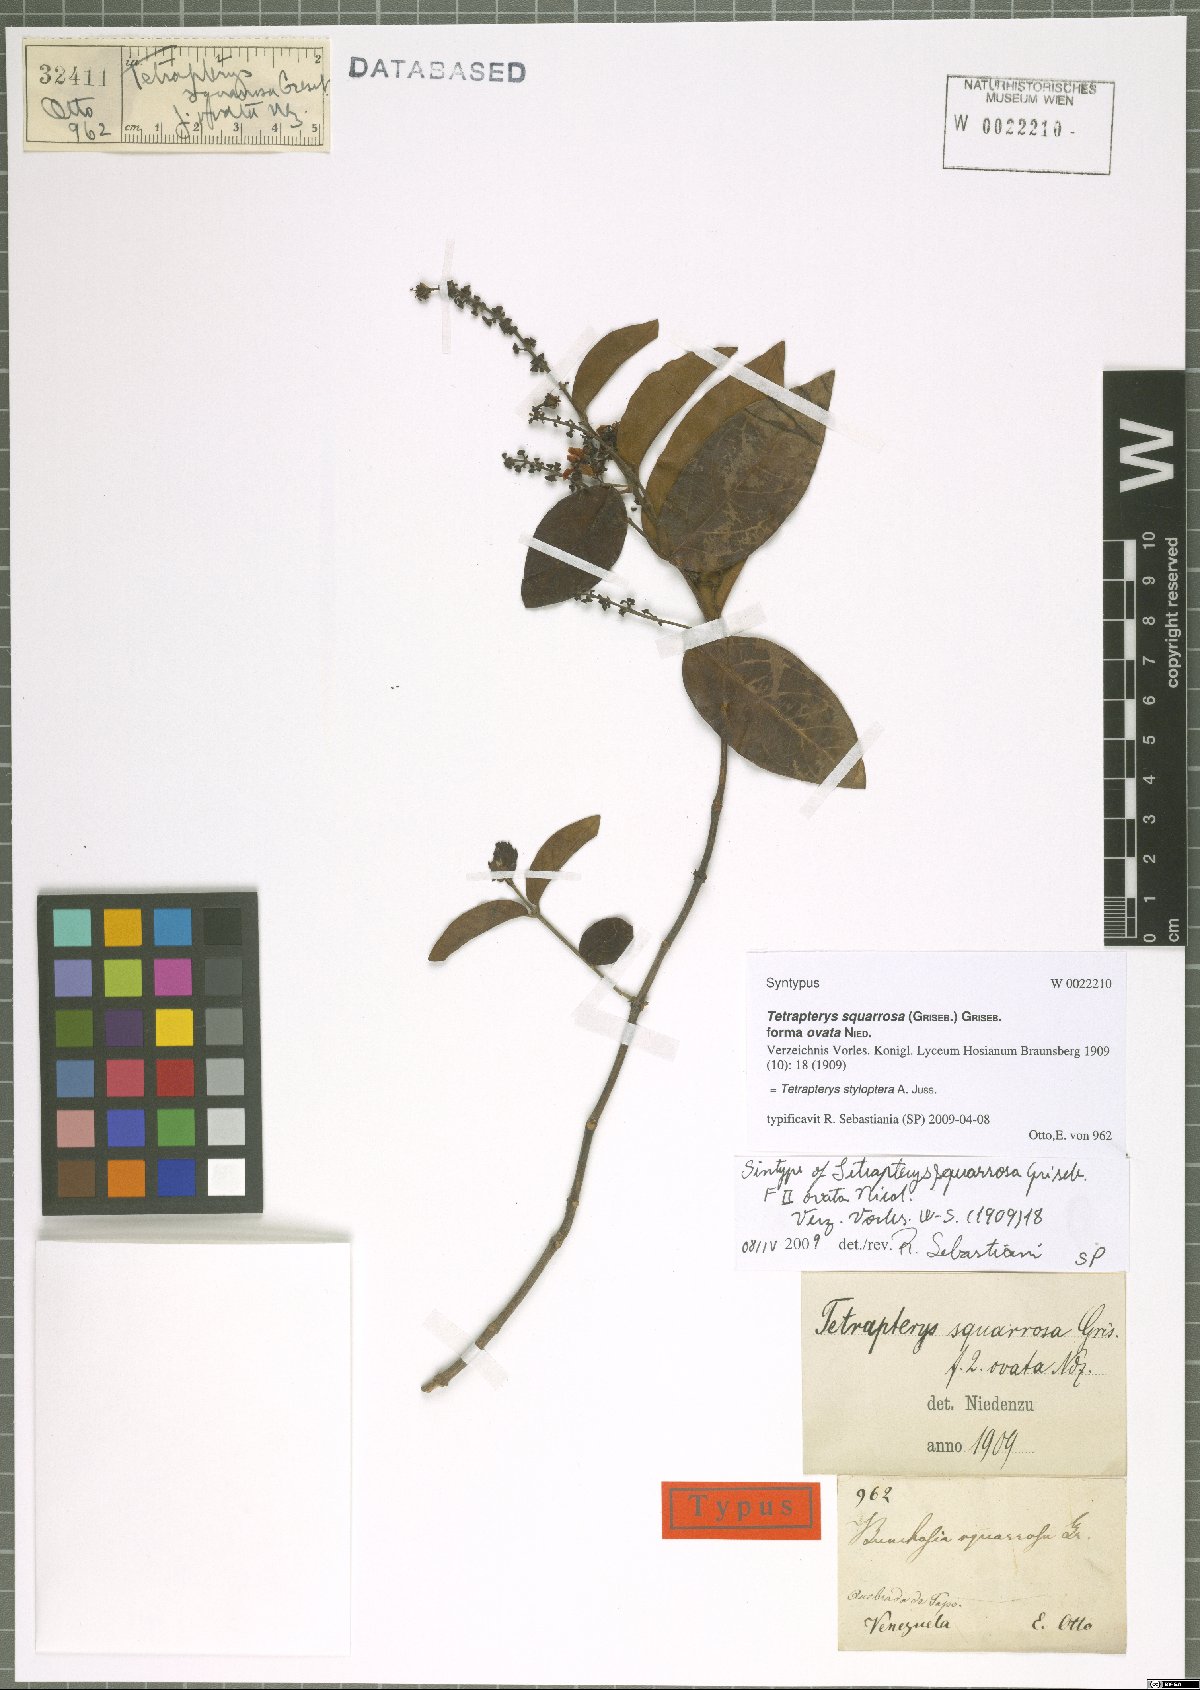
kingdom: Plantae
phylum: Tracheophyta
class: Magnoliopsida
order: Malpighiales
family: Malpighiaceae
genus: Glicophyllum
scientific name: Glicophyllum stylopterum
